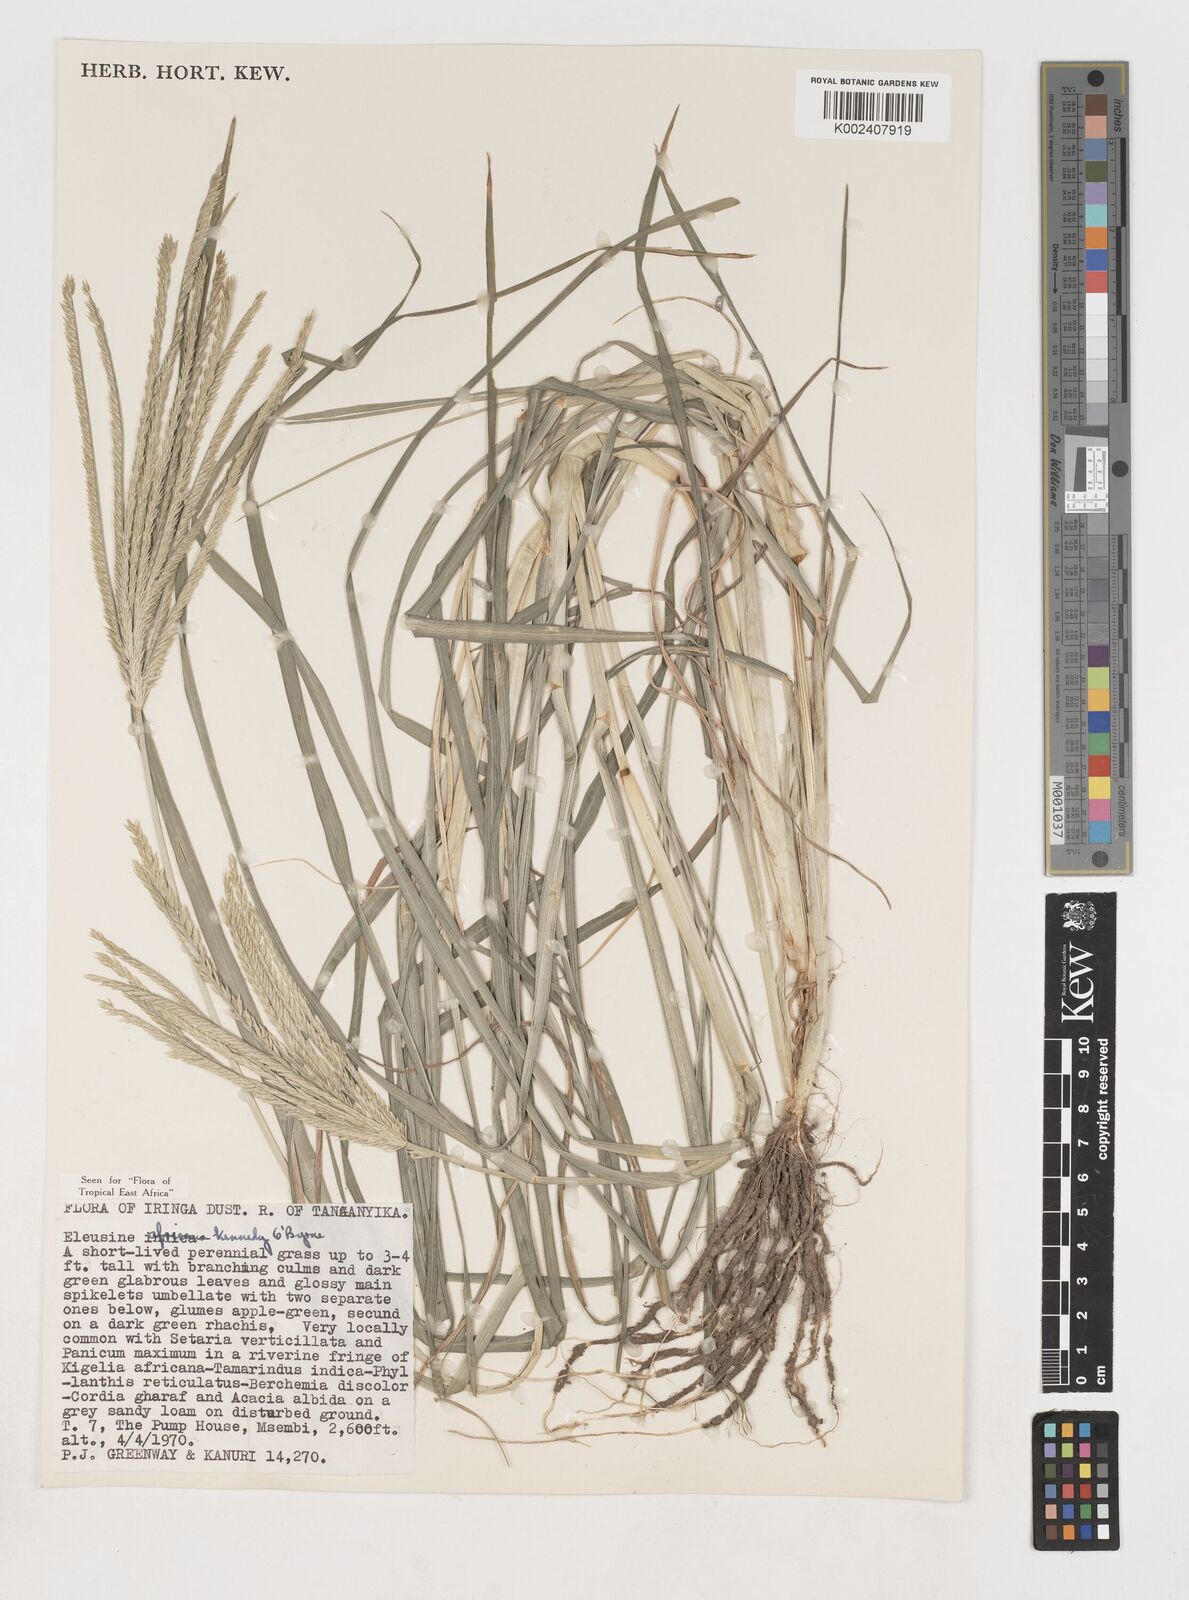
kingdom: Plantae
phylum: Tracheophyta
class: Liliopsida
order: Poales
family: Poaceae
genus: Eleusine
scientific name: Eleusine africana
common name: Wild african finger millet
